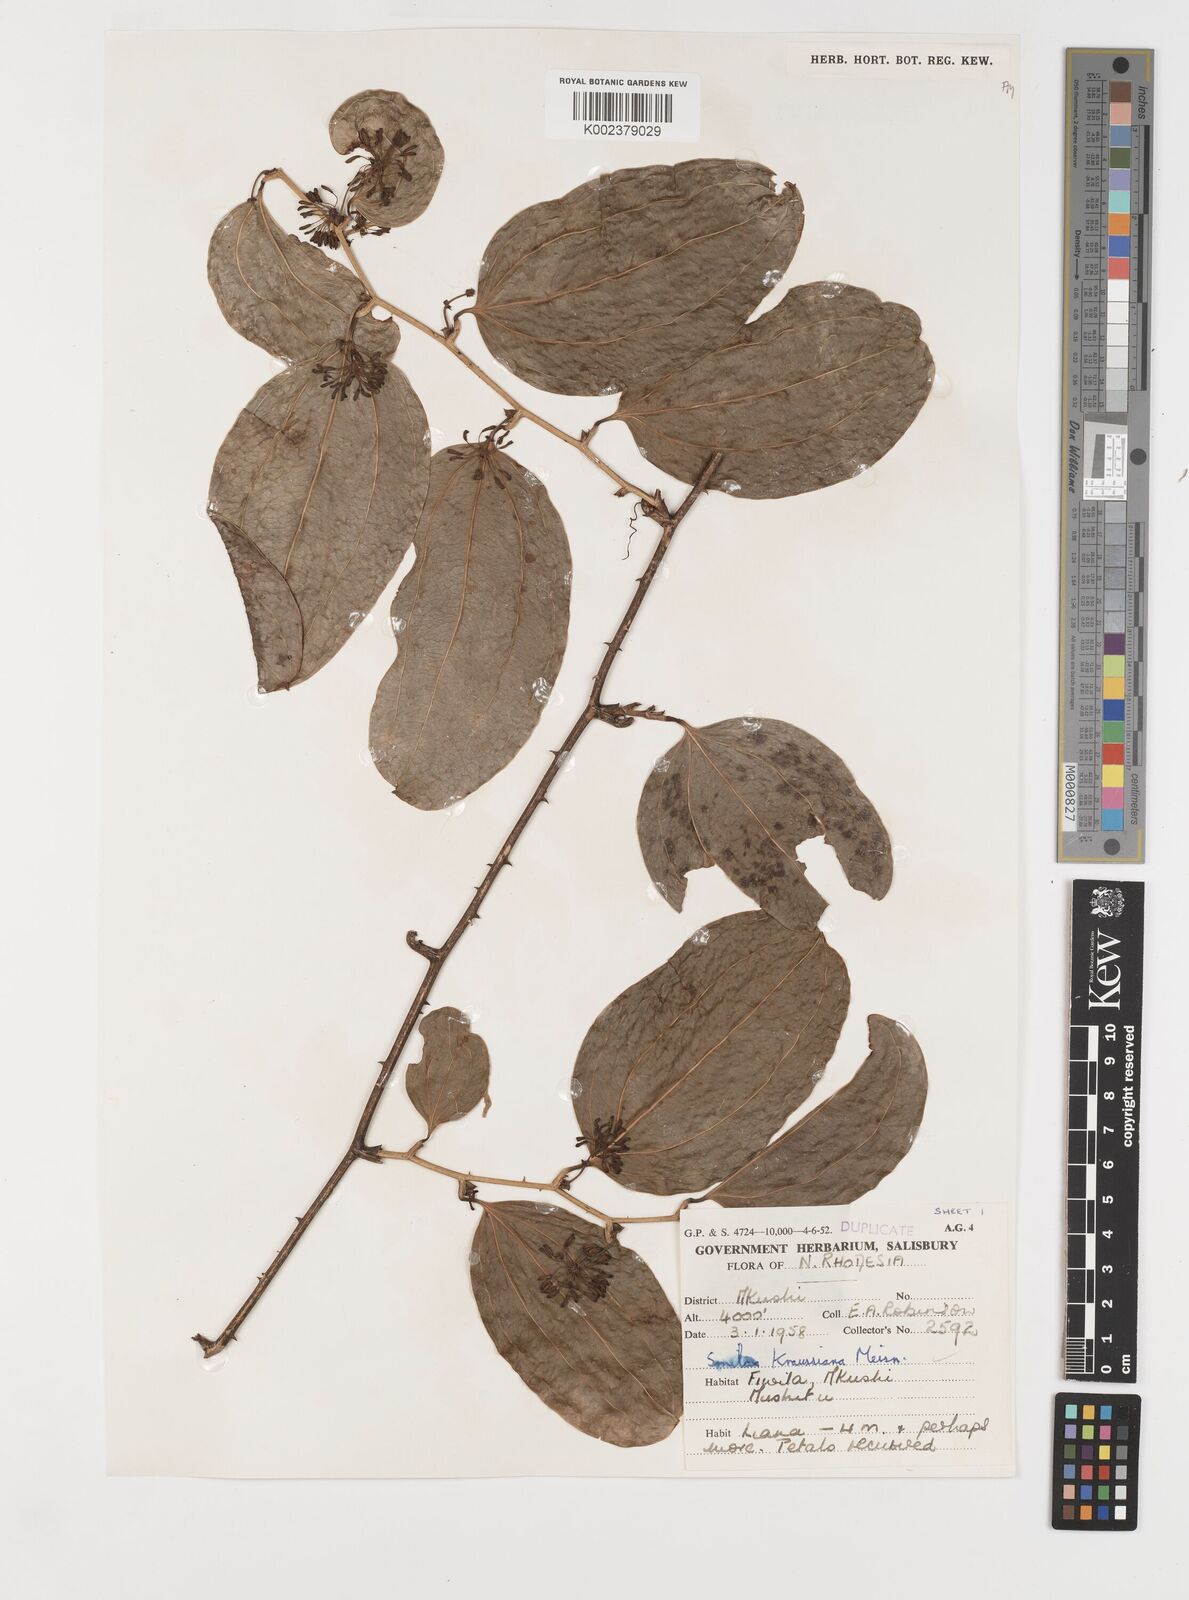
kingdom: Plantae
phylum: Tracheophyta
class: Liliopsida
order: Liliales
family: Smilacaceae
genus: Smilax
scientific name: Smilax anceps
